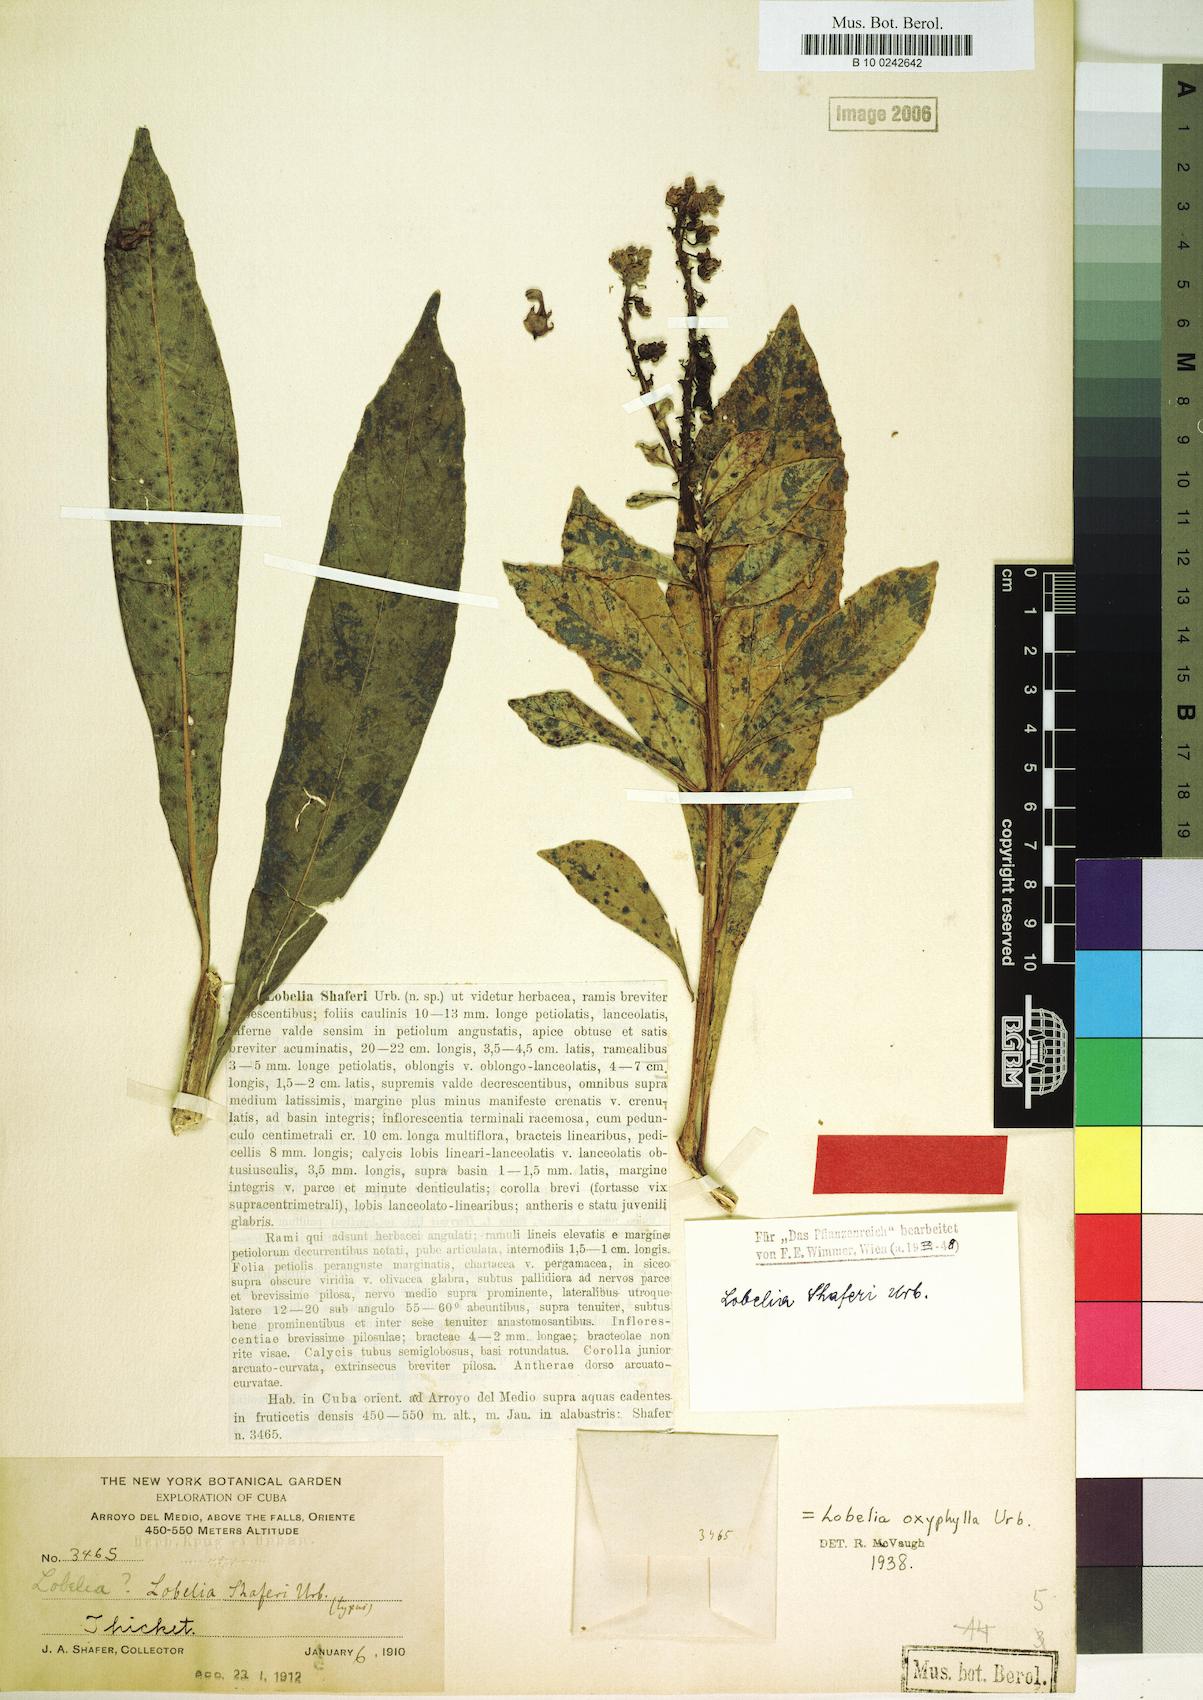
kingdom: Plantae
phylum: Tracheophyta
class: Magnoliopsida
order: Asterales
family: Campanulaceae
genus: Lobelia
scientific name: Lobelia shaferi
